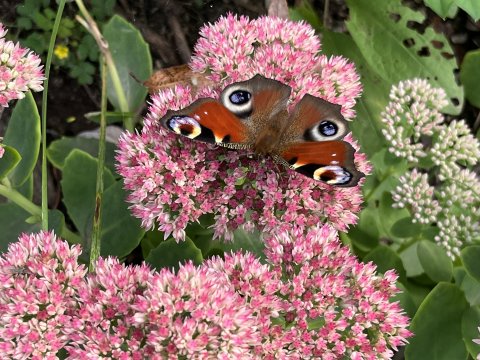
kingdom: Animalia
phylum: Arthropoda
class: Insecta
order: Lepidoptera
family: Nymphalidae
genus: Aglais
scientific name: Aglais io
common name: European Peacock
